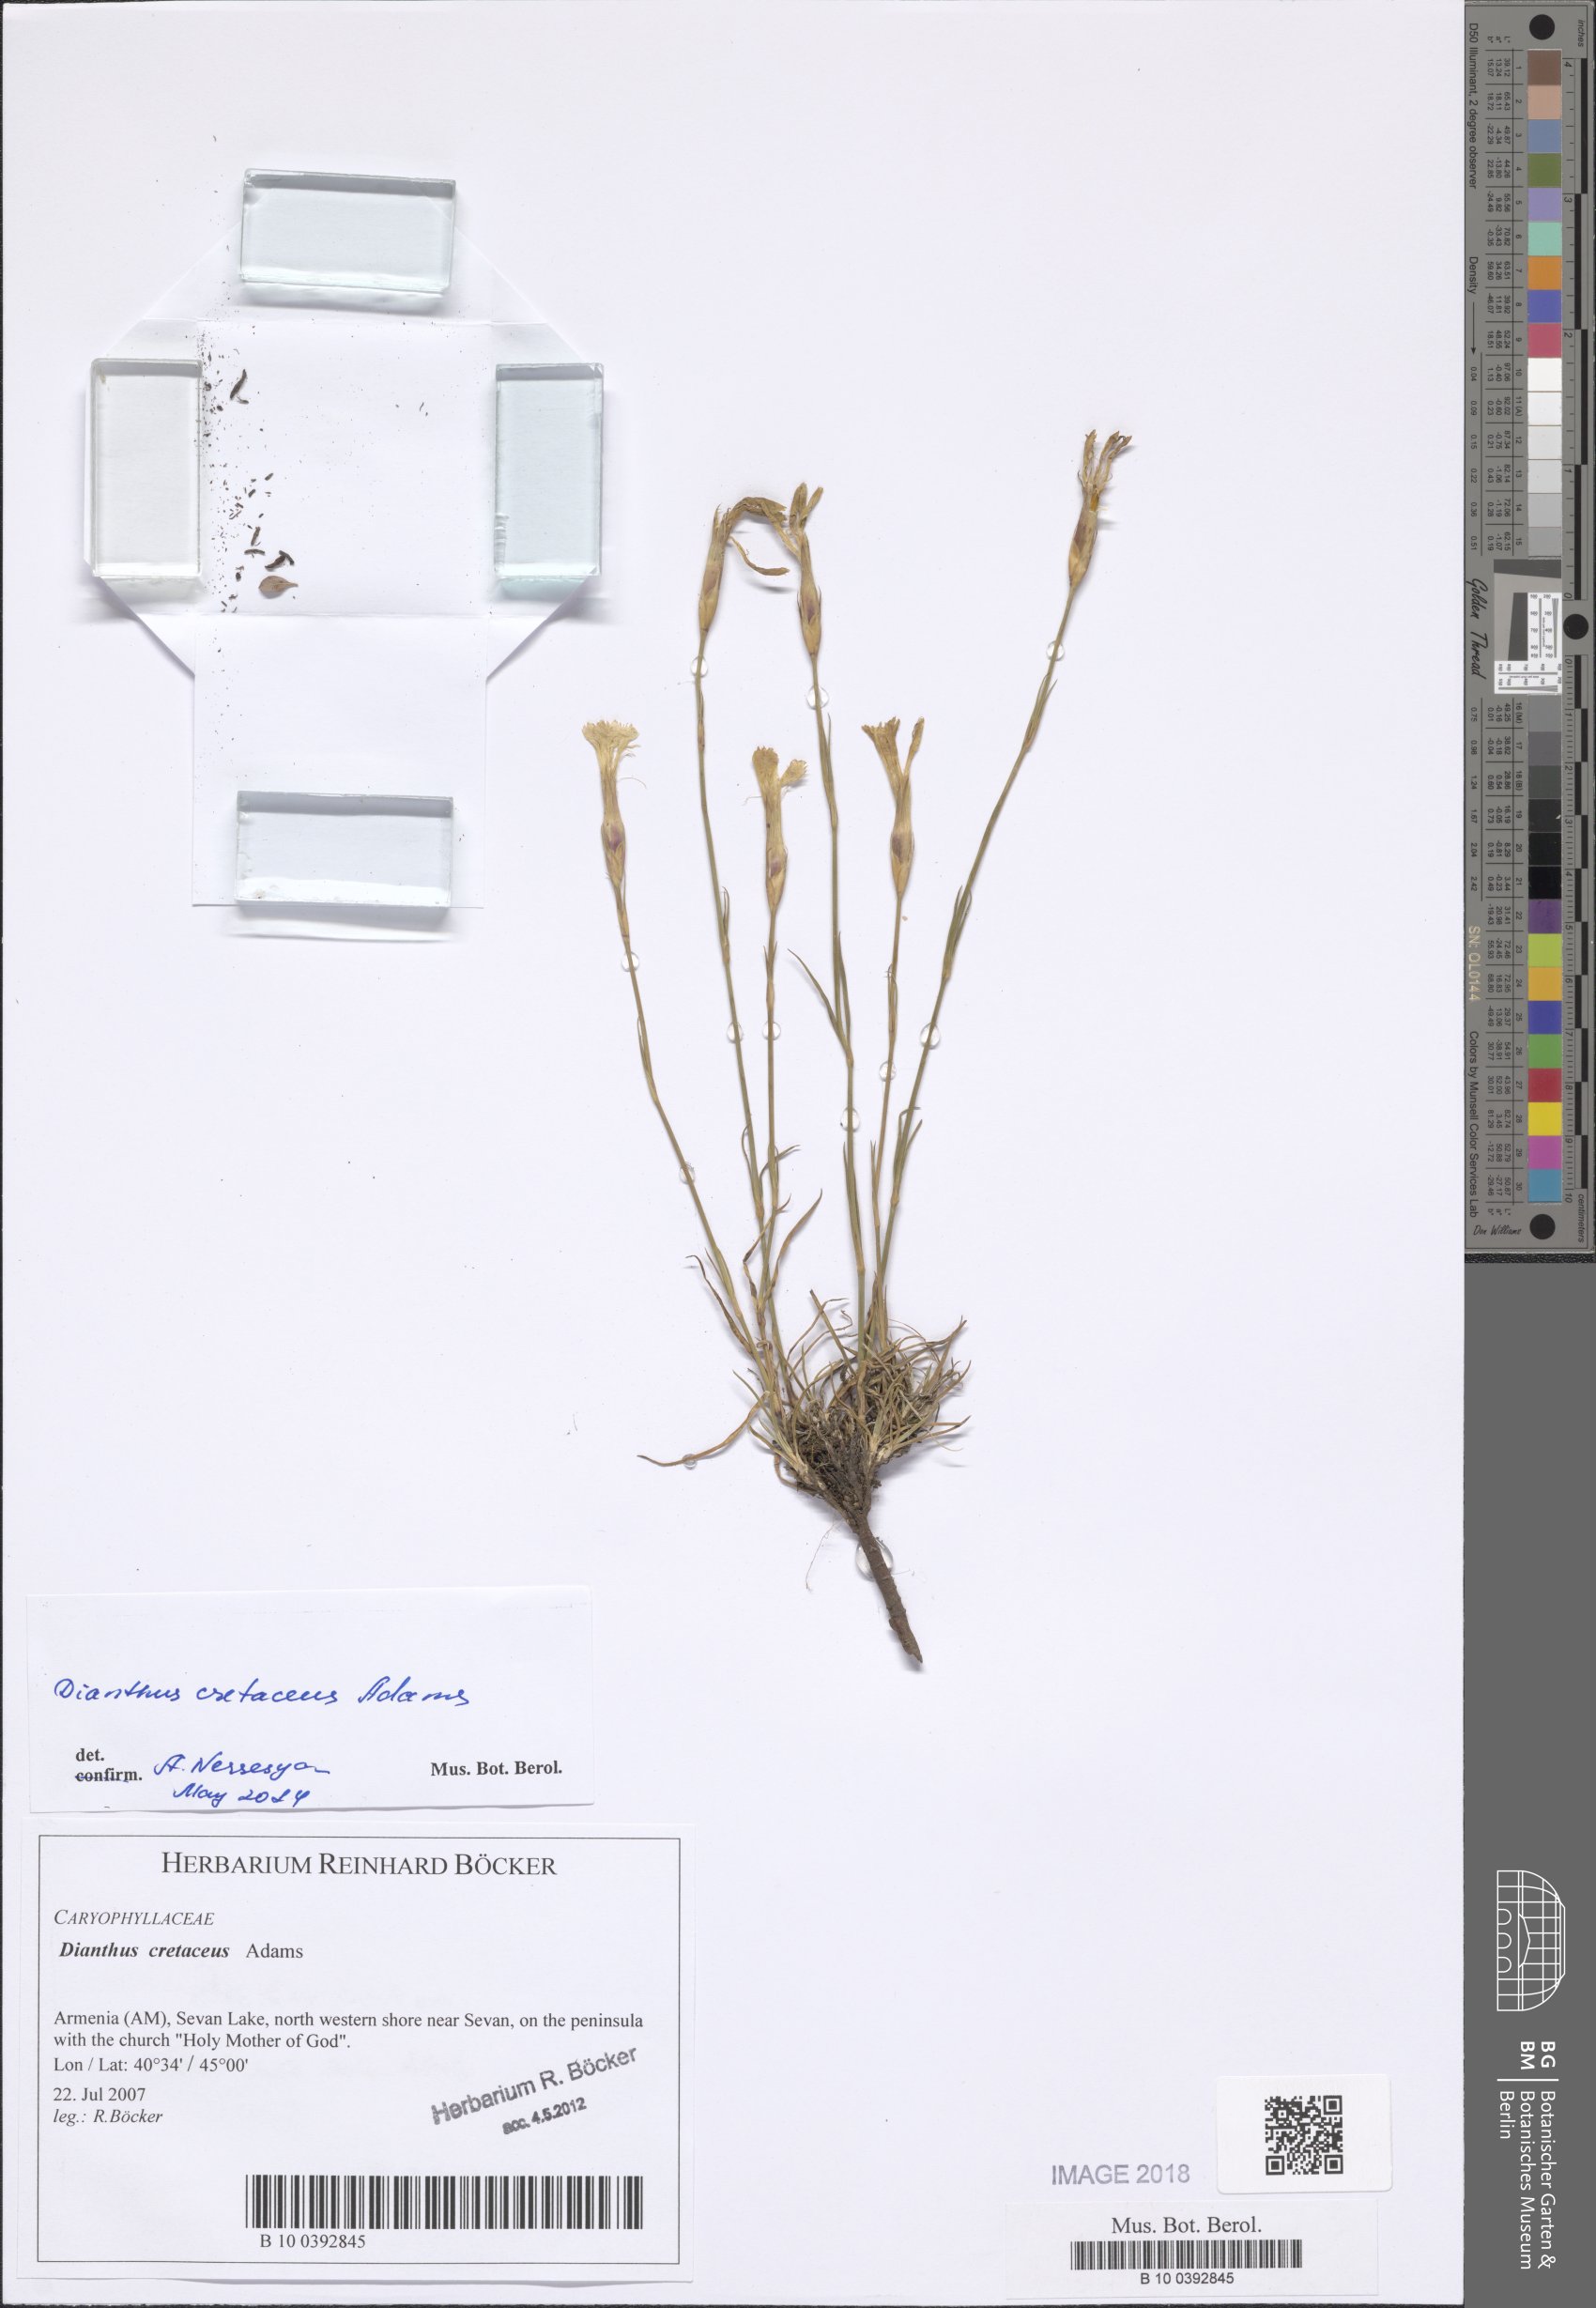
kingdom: Plantae
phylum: Tracheophyta
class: Magnoliopsida
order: Caryophyllales
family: Caryophyllaceae
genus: Dianthus
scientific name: Dianthus cretaceus
